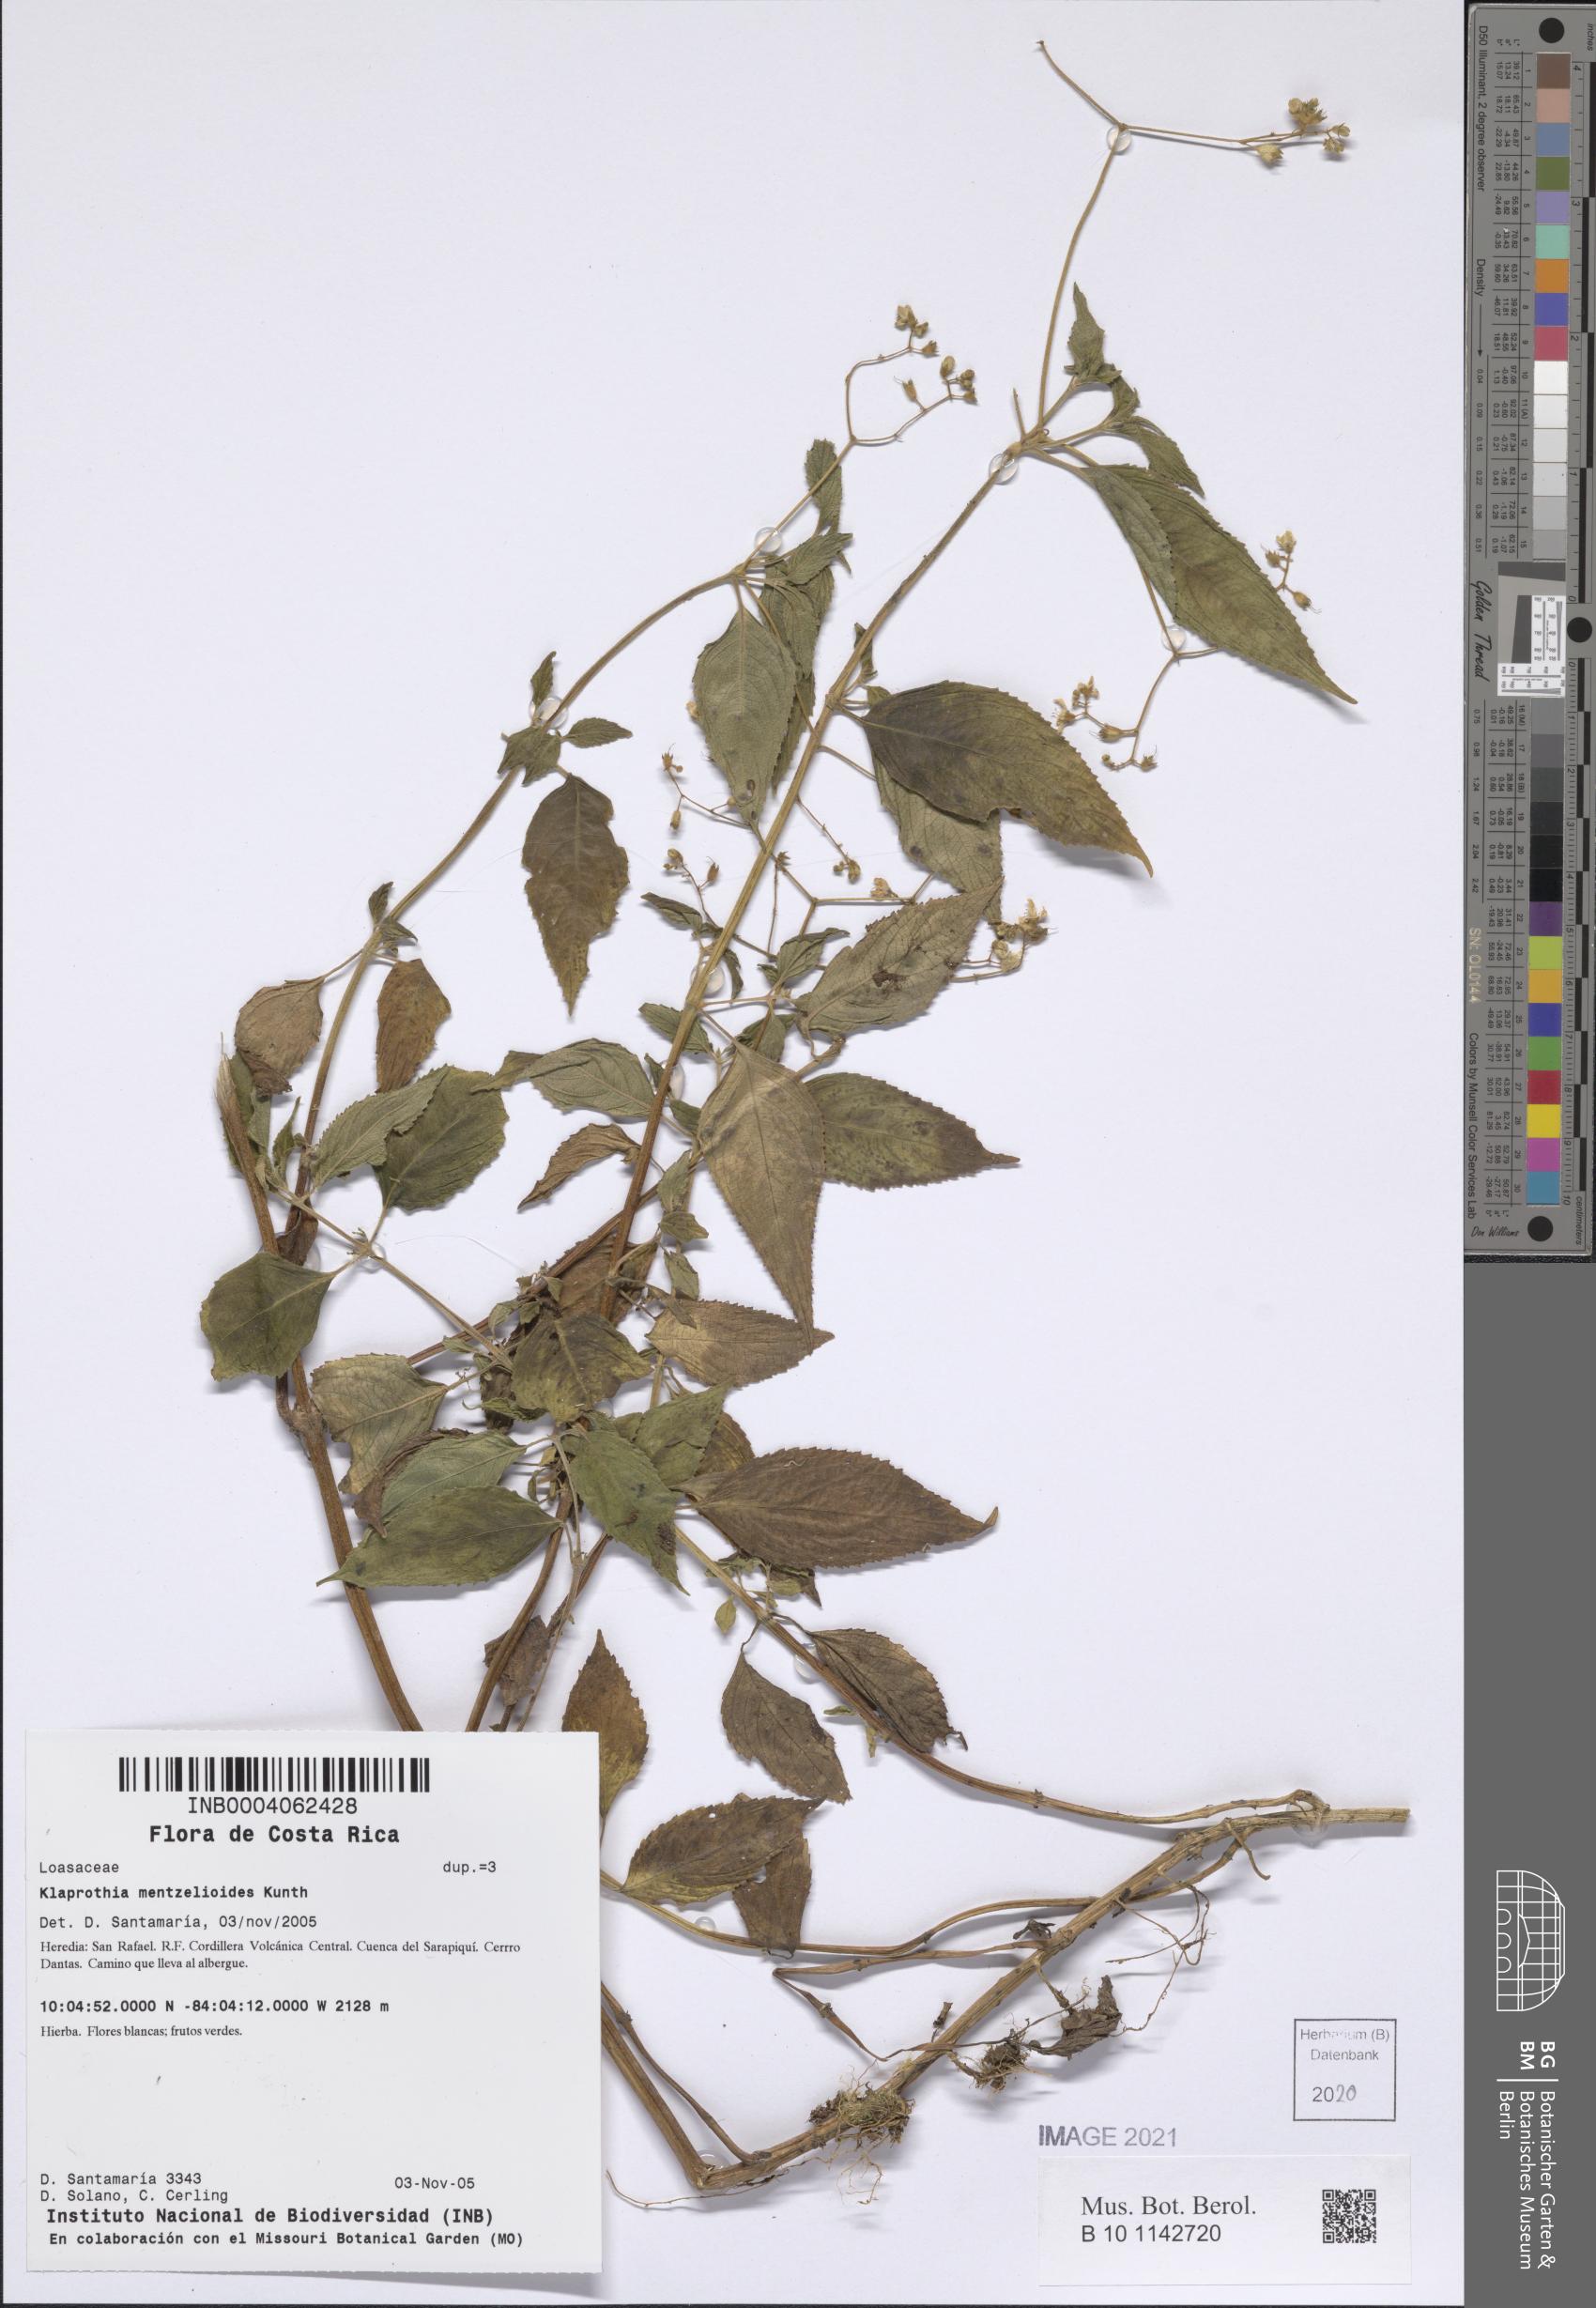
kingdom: Plantae
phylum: Tracheophyta
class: Magnoliopsida
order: Cornales
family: Loasaceae
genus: Klaprothia
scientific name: Klaprothia mentzelioides
